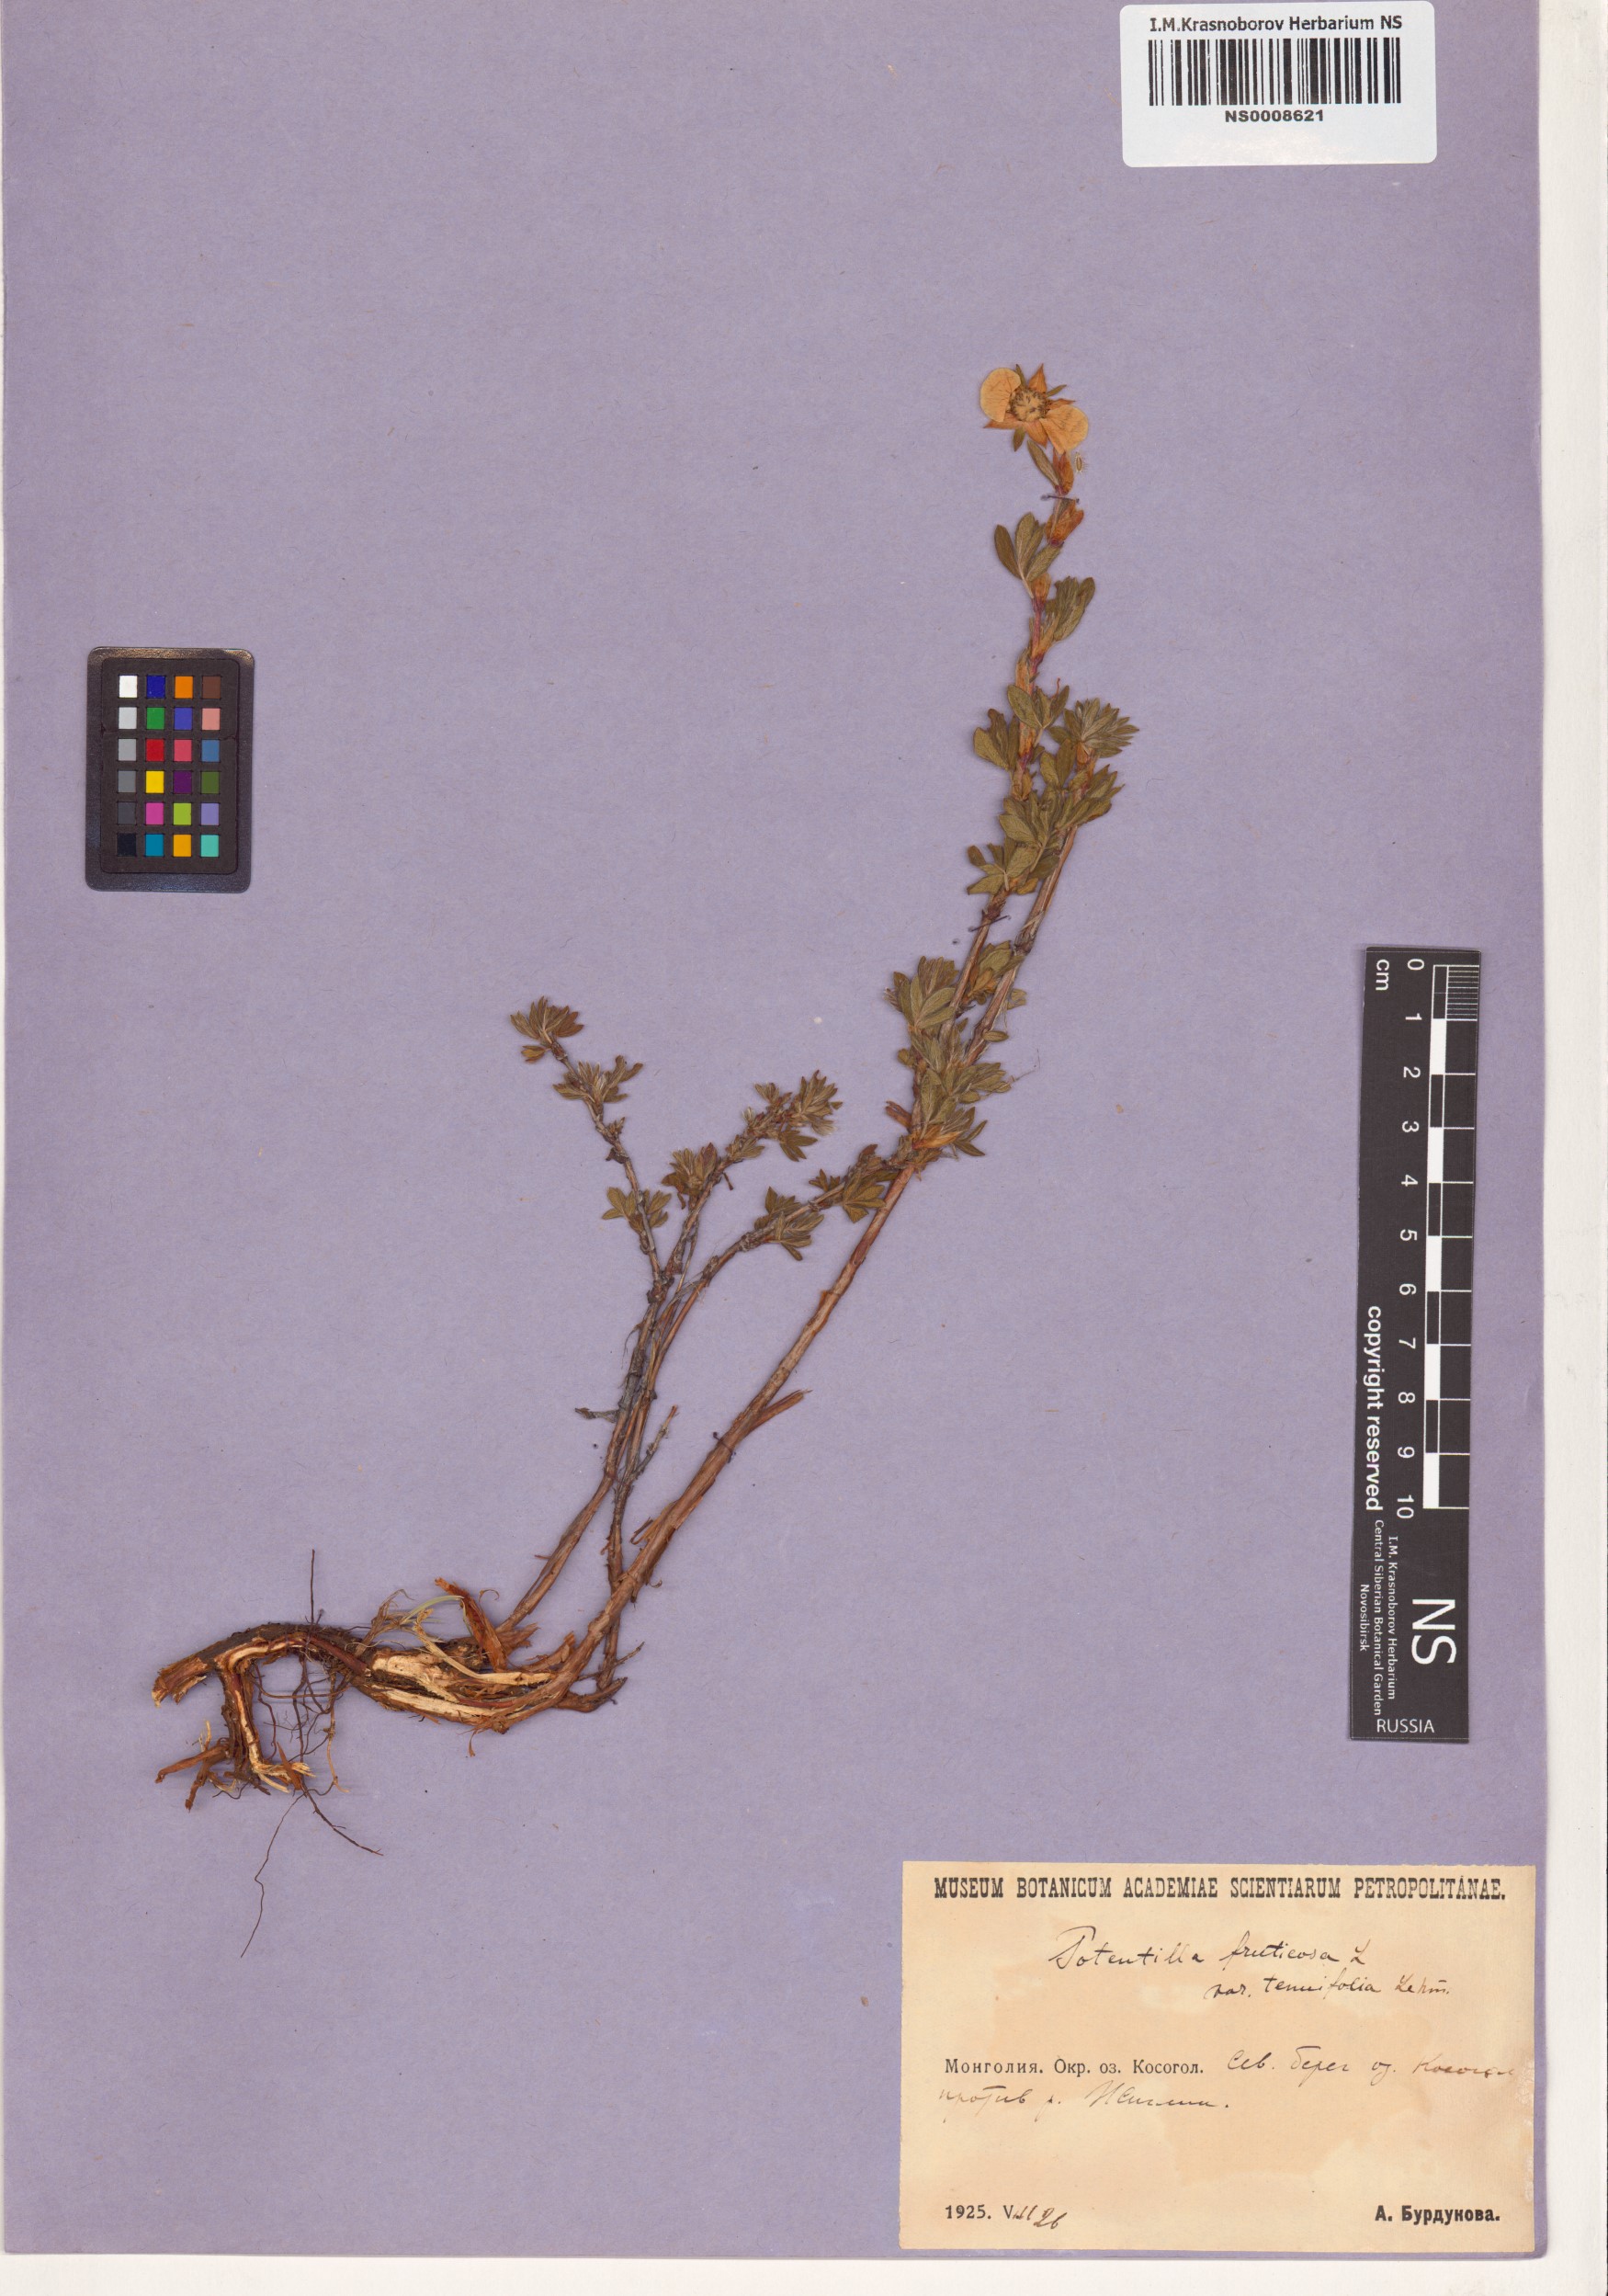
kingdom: Plantae
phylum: Tracheophyta
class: Magnoliopsida
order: Rosales
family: Rosaceae
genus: Dasiphora
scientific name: Dasiphora fruticosa
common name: Shrubby cinquefoil
